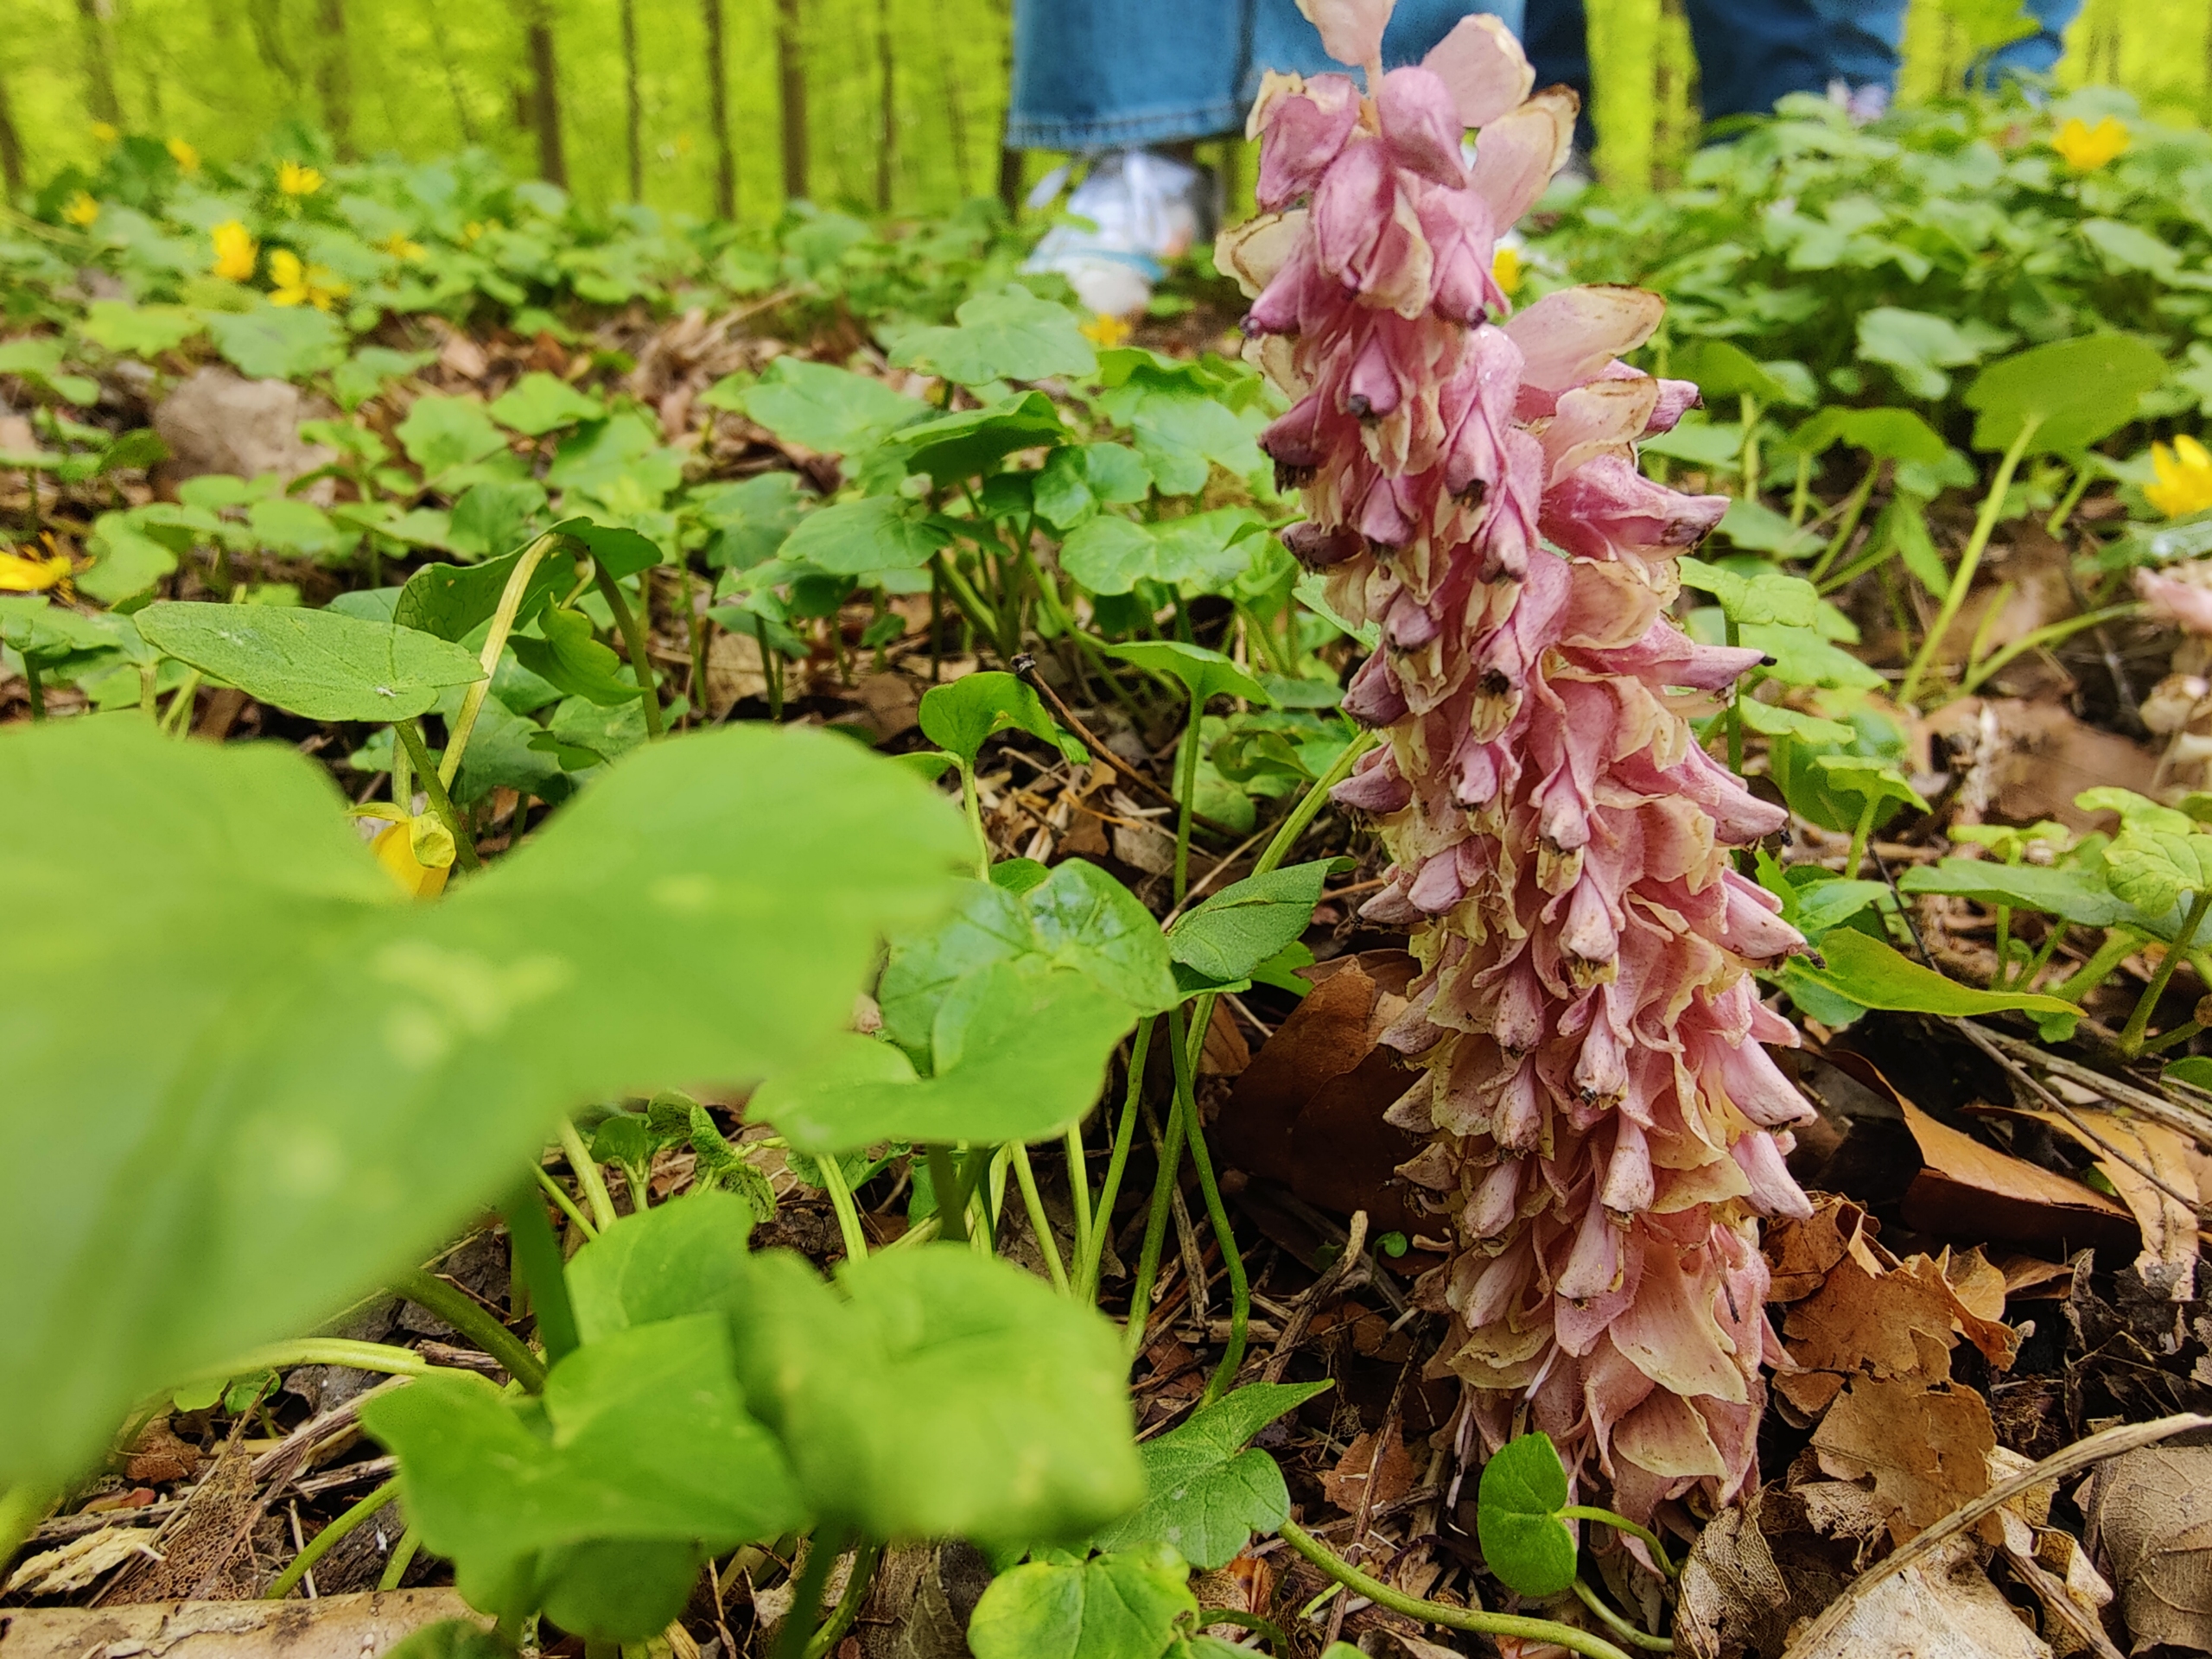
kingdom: Plantae
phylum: Tracheophyta
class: Magnoliopsida
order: Lamiales
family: Orobanchaceae
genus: Lathraea
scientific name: Lathraea squamaria
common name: Skælrod
